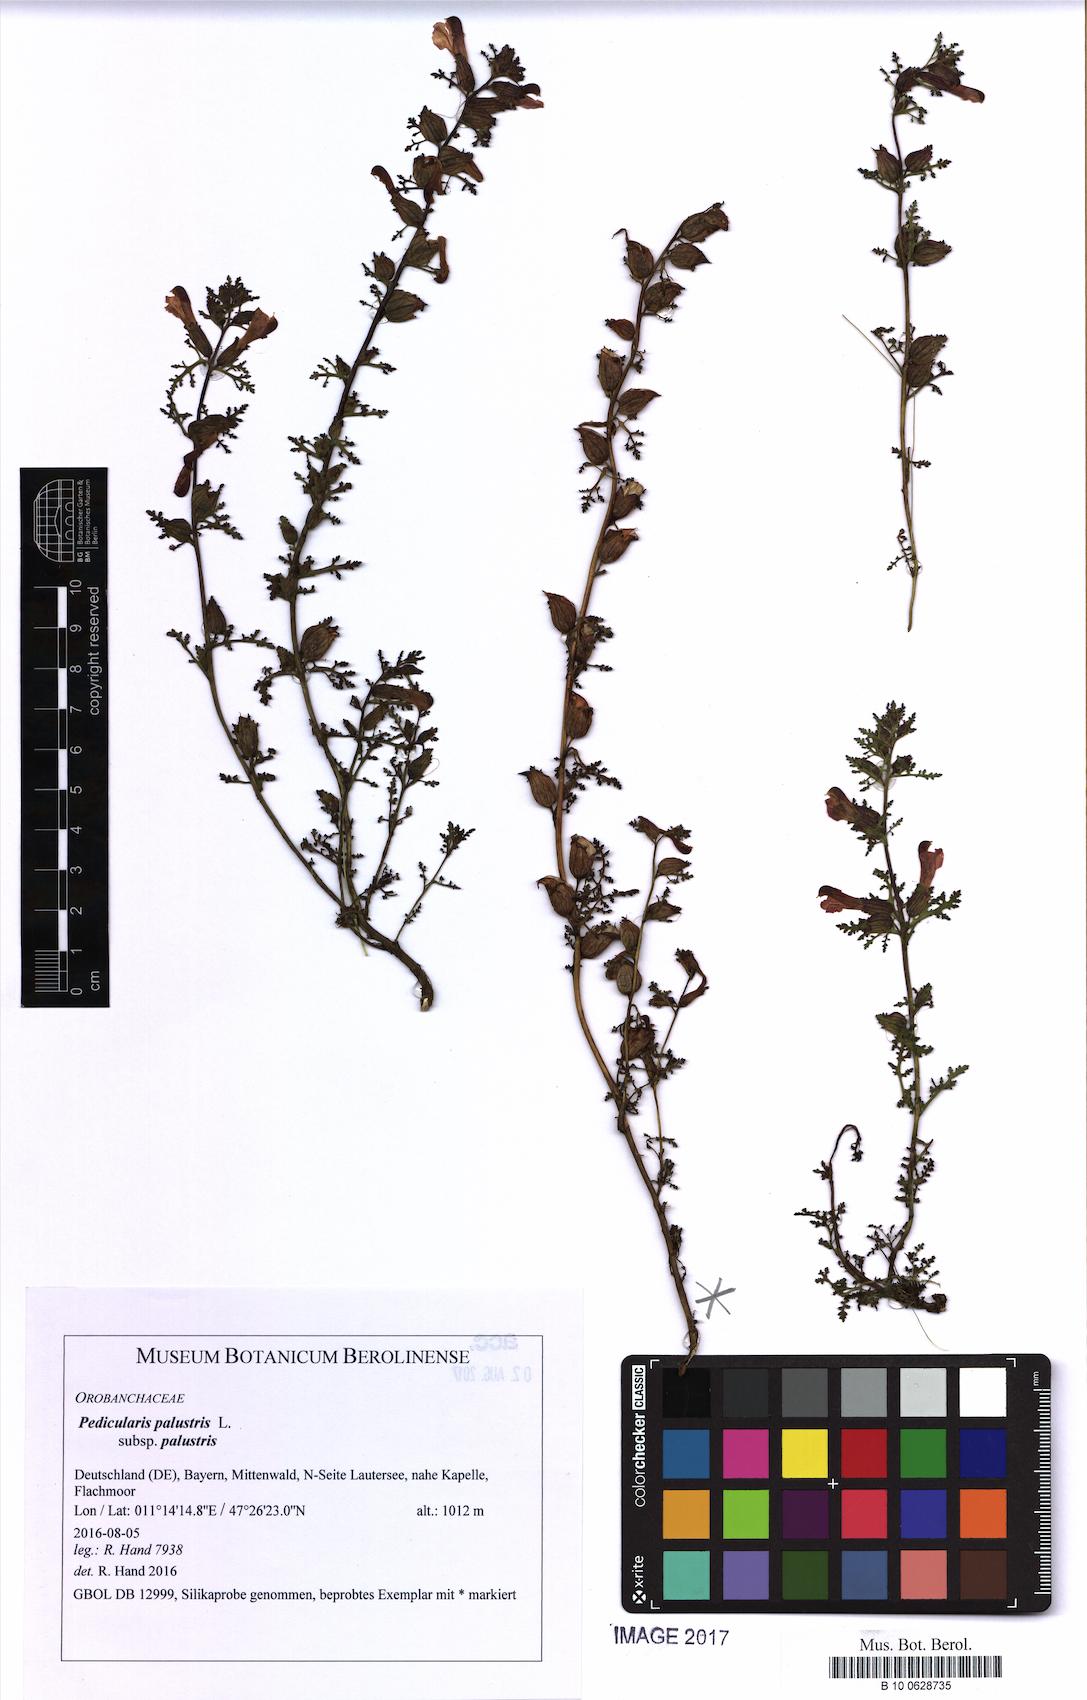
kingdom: Plantae
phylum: Tracheophyta
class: Magnoliopsida
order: Lamiales
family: Orobanchaceae
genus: Pedicularis
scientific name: Pedicularis palustris
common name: Marsh lousewort
